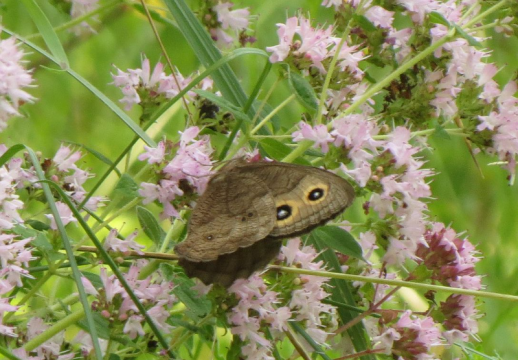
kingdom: Animalia
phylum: Arthropoda
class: Insecta
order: Lepidoptera
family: Nymphalidae
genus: Cercyonis
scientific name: Cercyonis pegala
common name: Common Wood-Nymph
